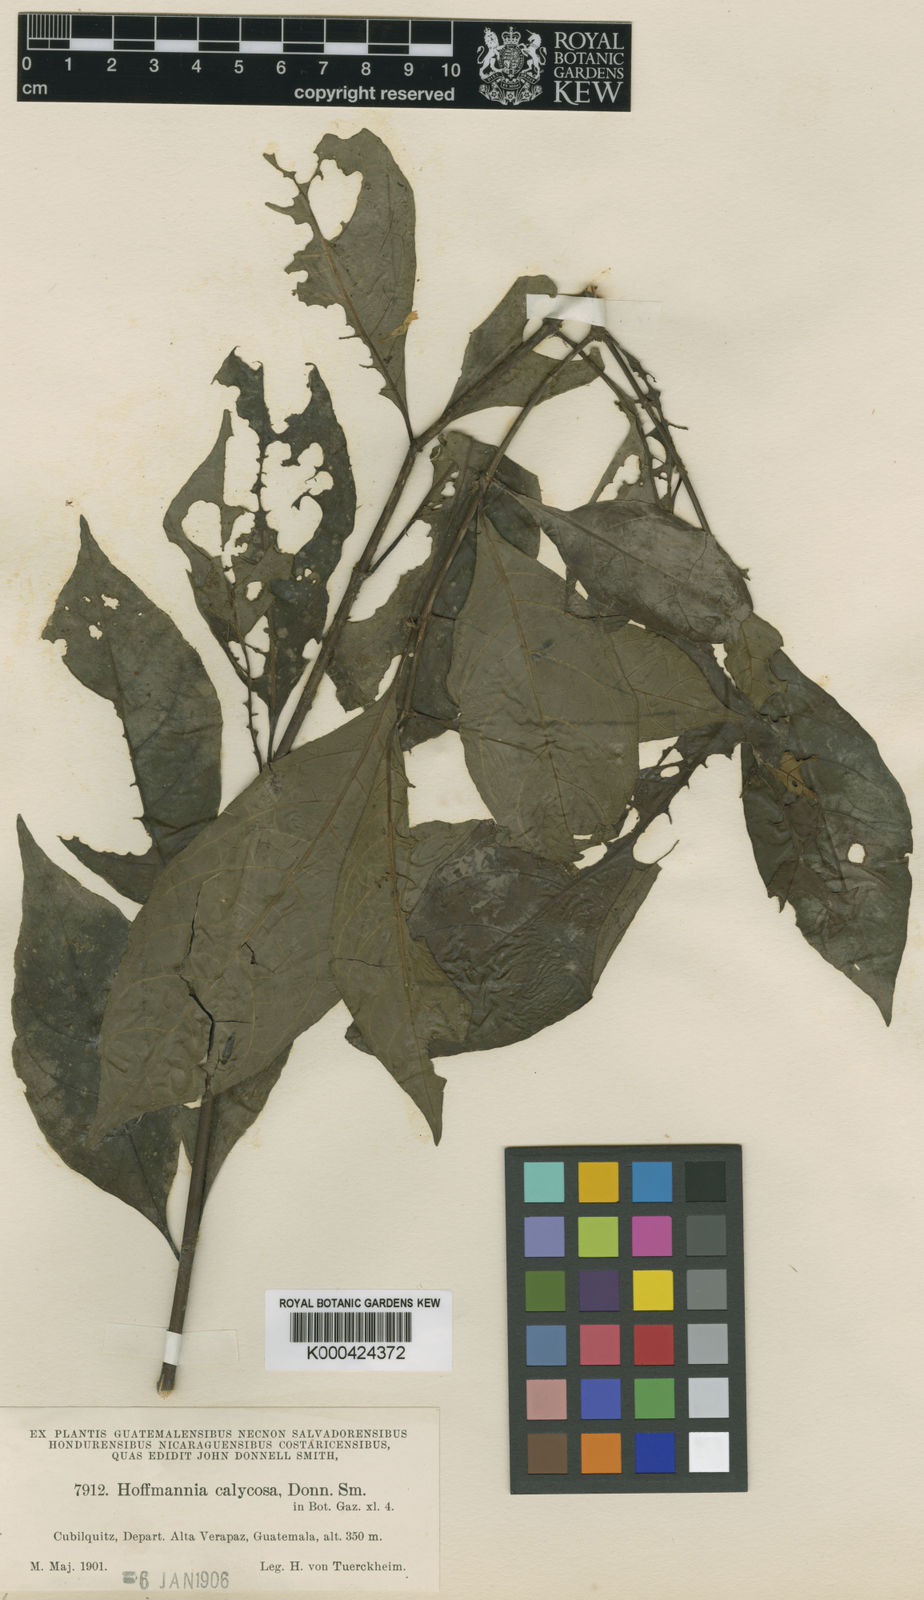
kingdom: Plantae
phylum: Tracheophyta
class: Magnoliopsida
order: Gentianales
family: Rubiaceae
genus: Hoffmannia
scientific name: Hoffmannia psychotriifolia
